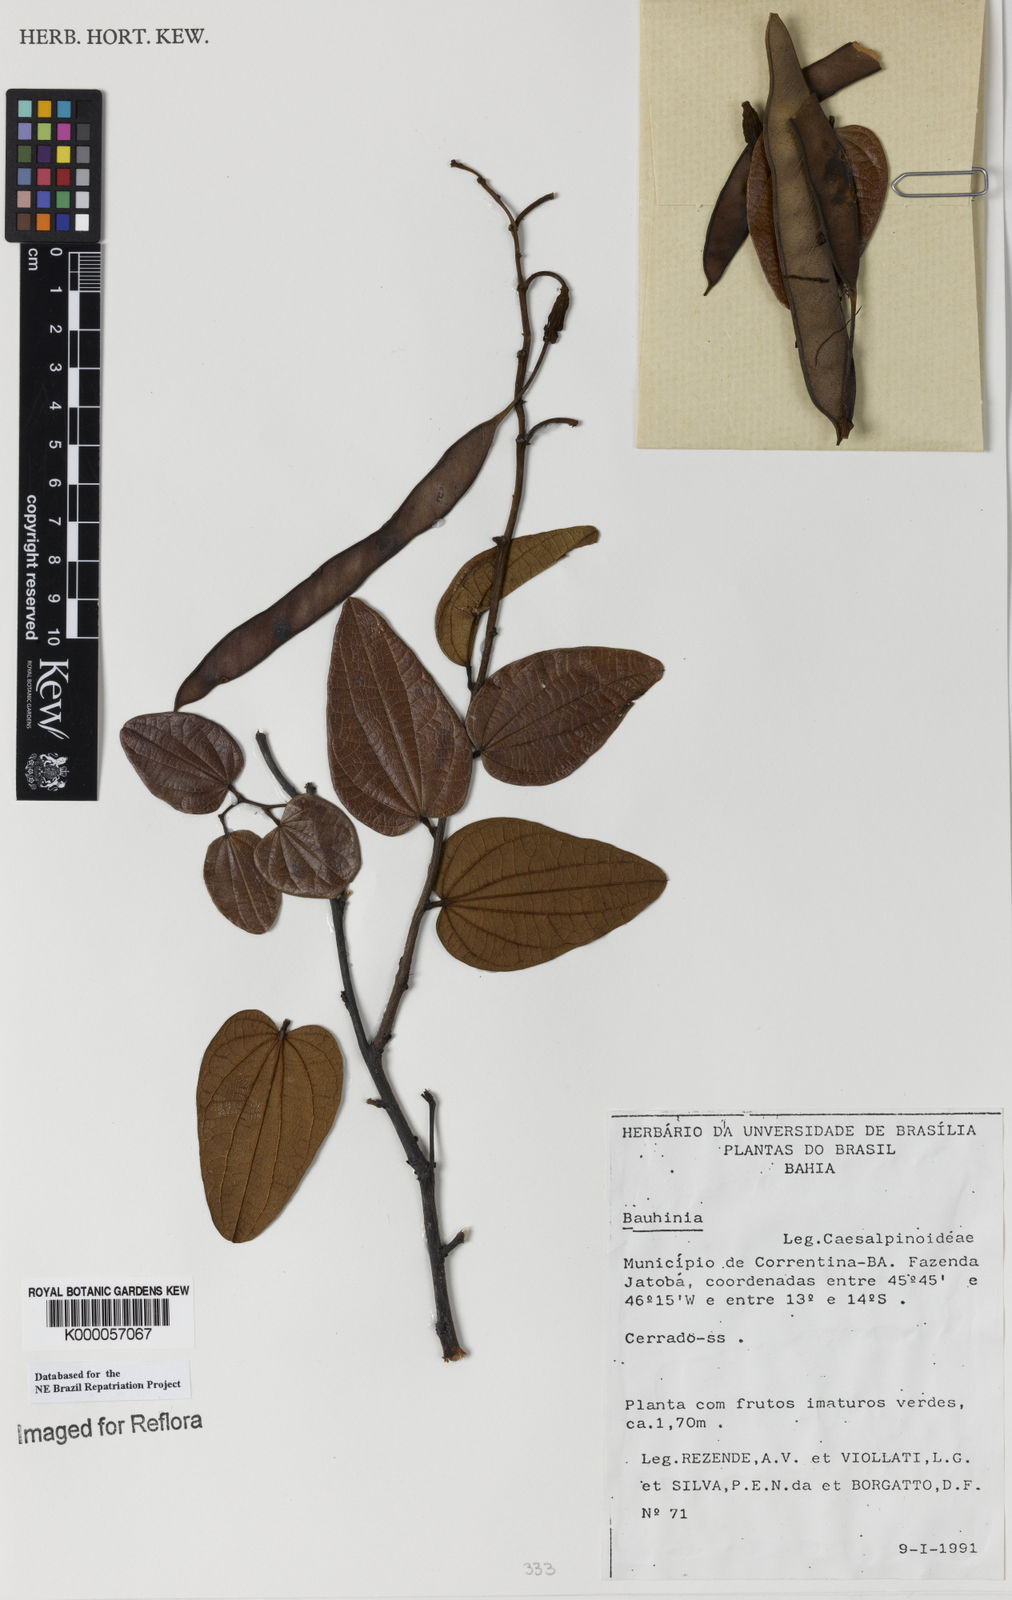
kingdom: Plantae
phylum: Tracheophyta
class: Magnoliopsida
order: Fabales
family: Fabaceae
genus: Bauhinia
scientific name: Bauhinia
